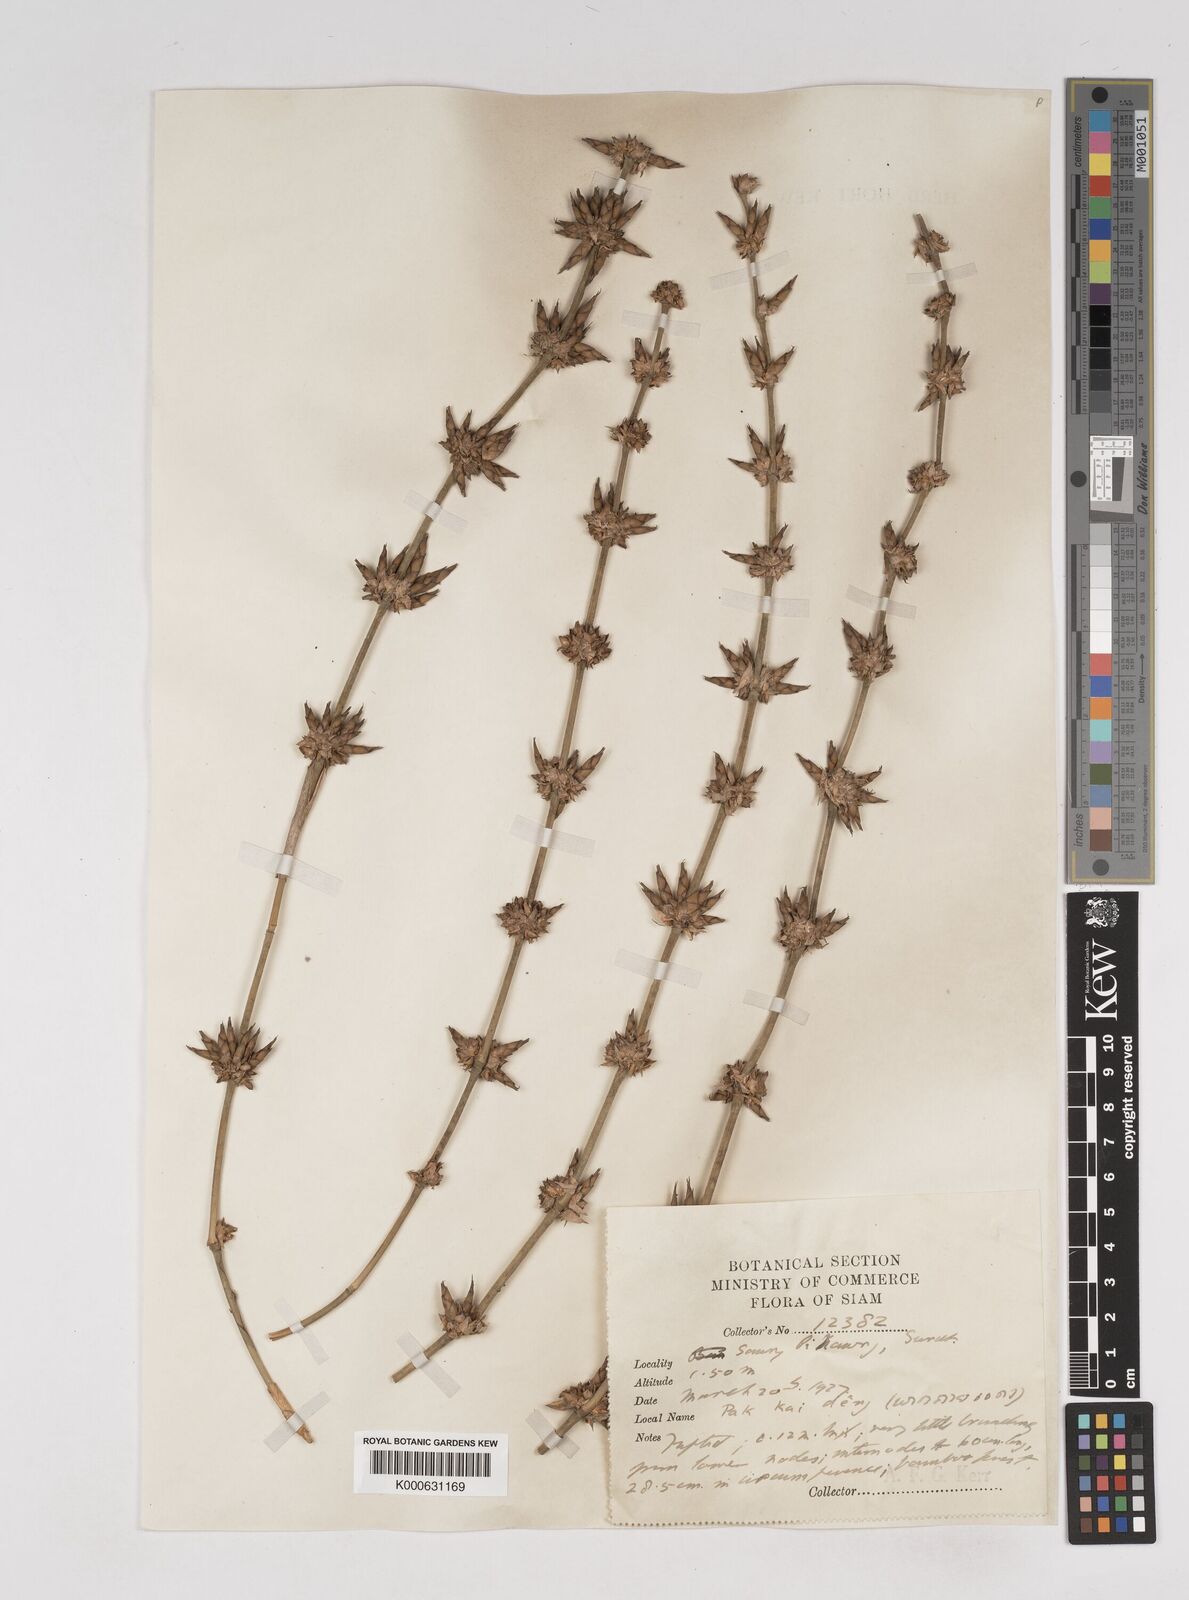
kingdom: Plantae
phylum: Tracheophyta
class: Liliopsida
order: Poales
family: Poaceae
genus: Gigantochloa
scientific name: Gigantochloa
